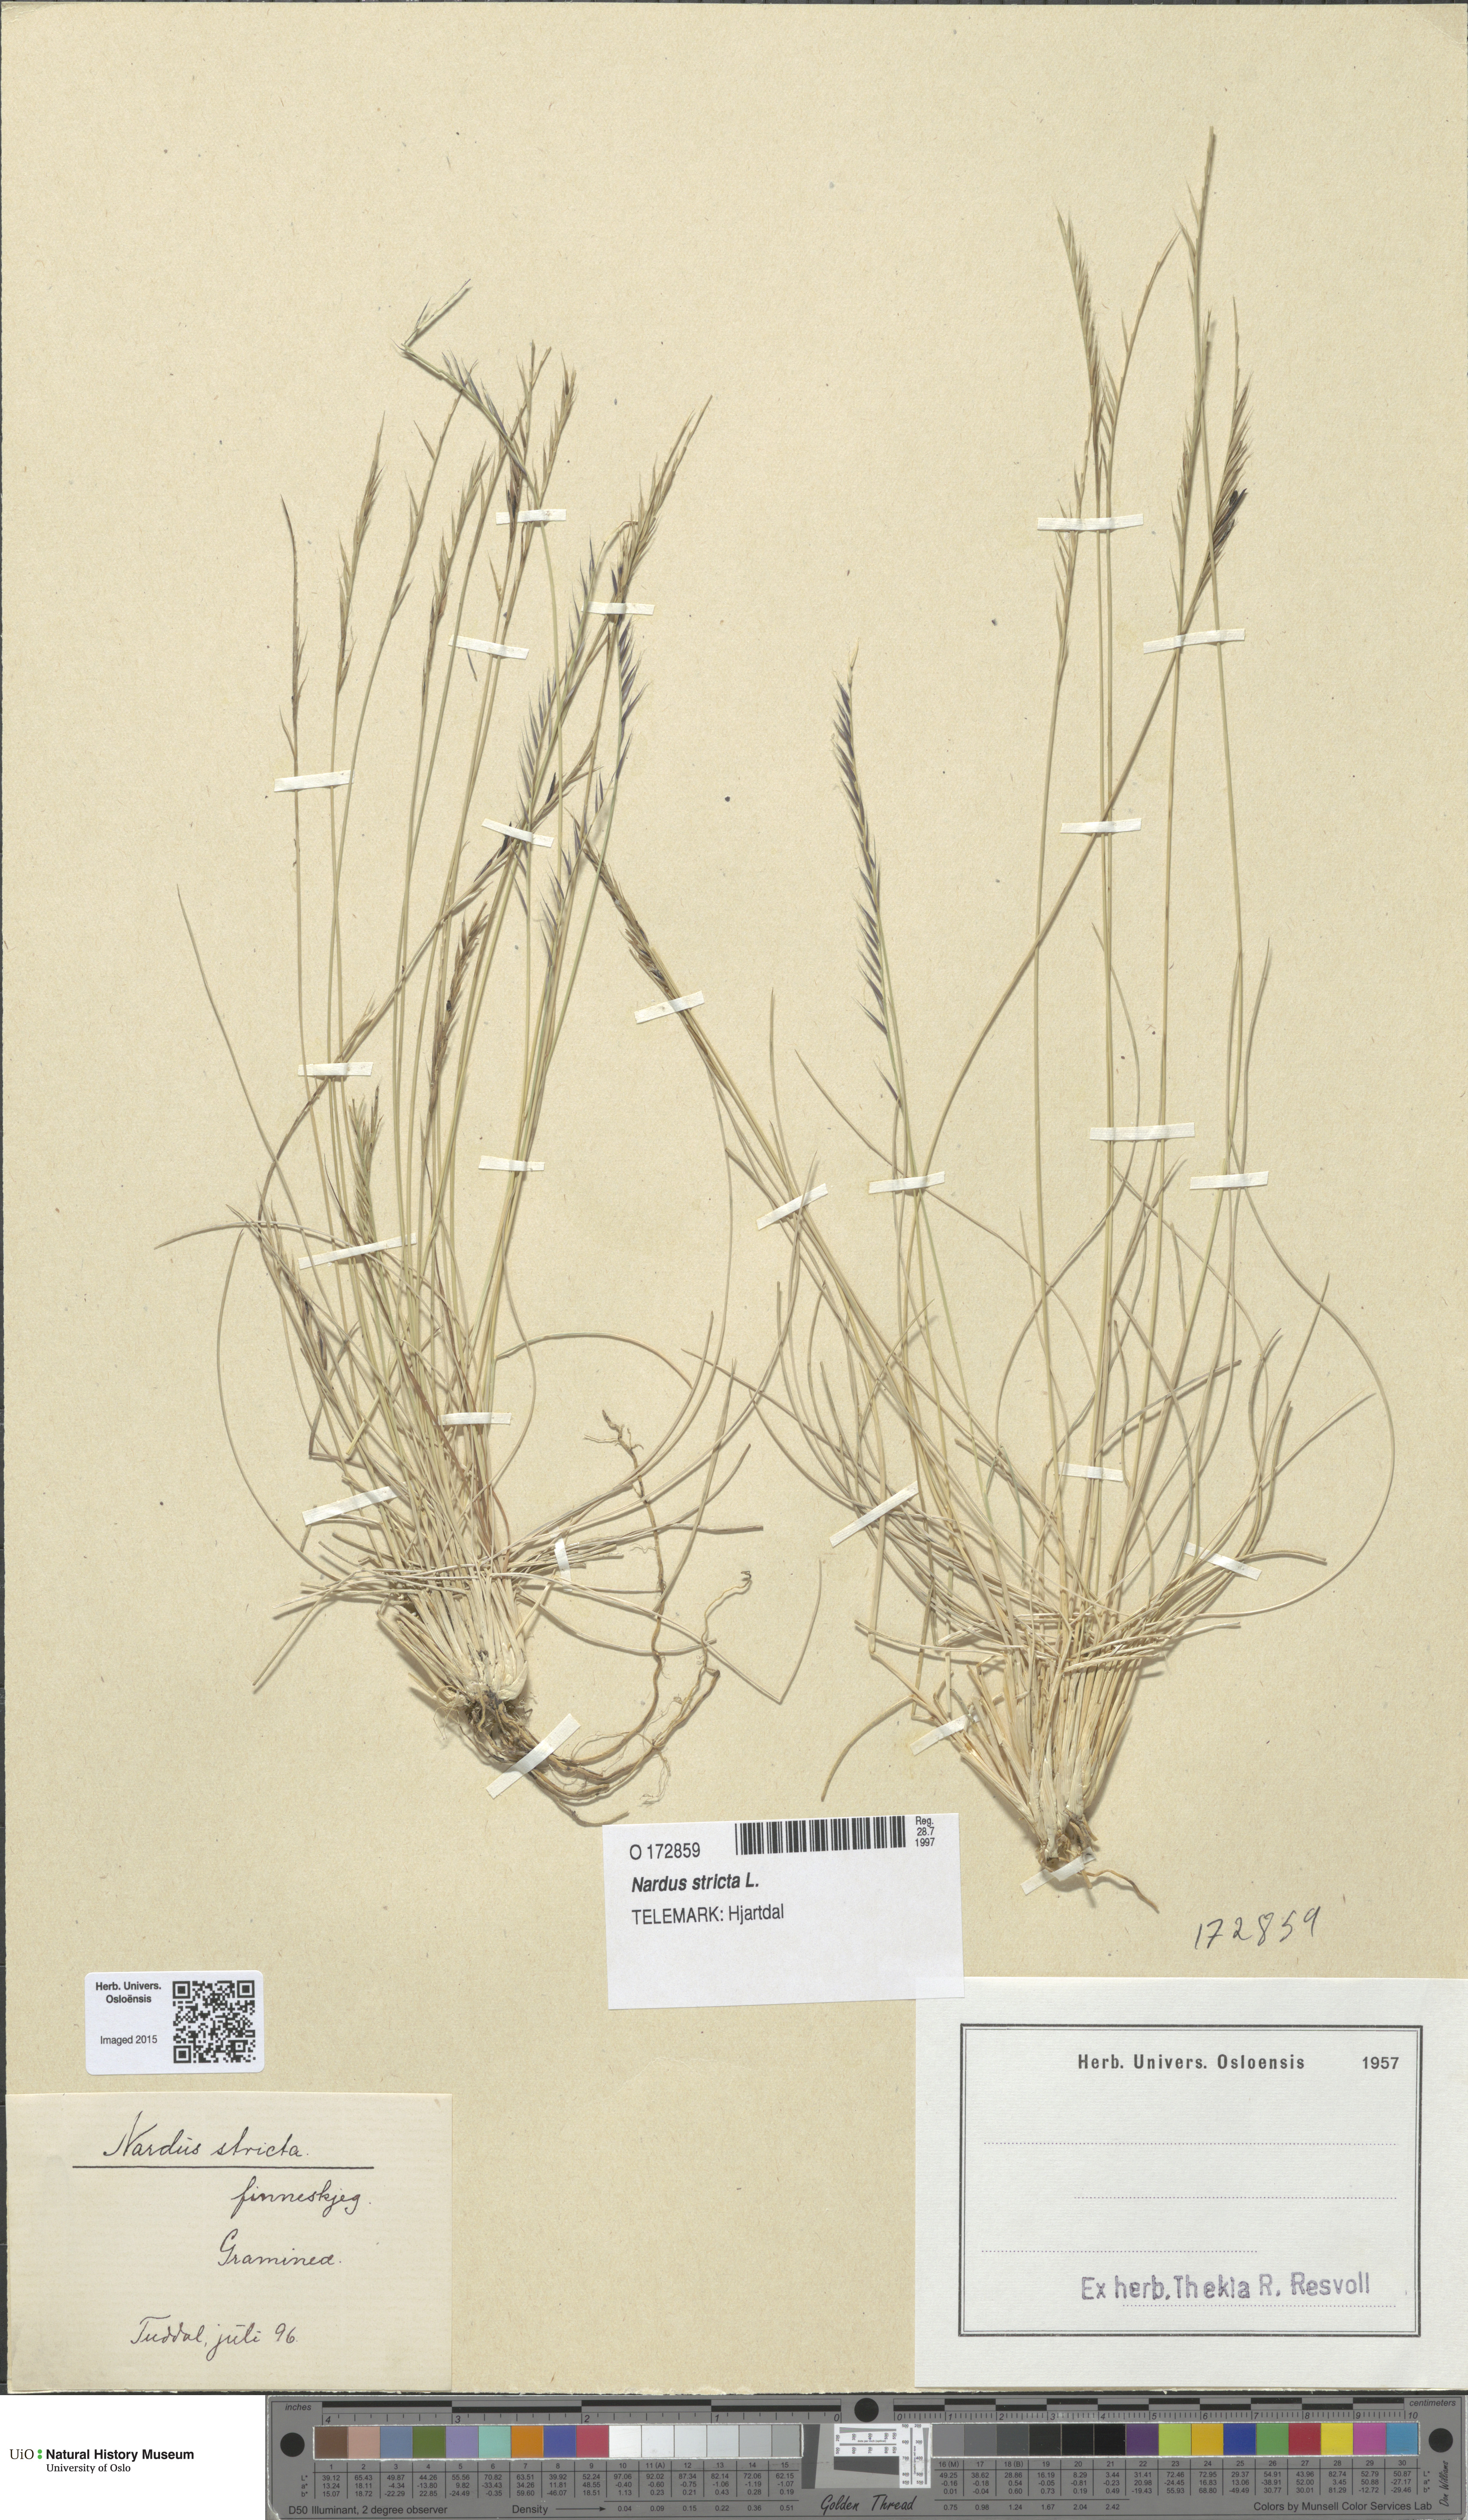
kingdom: Plantae
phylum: Tracheophyta
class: Liliopsida
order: Poales
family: Poaceae
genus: Nardus
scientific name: Nardus stricta
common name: Mat-grass
